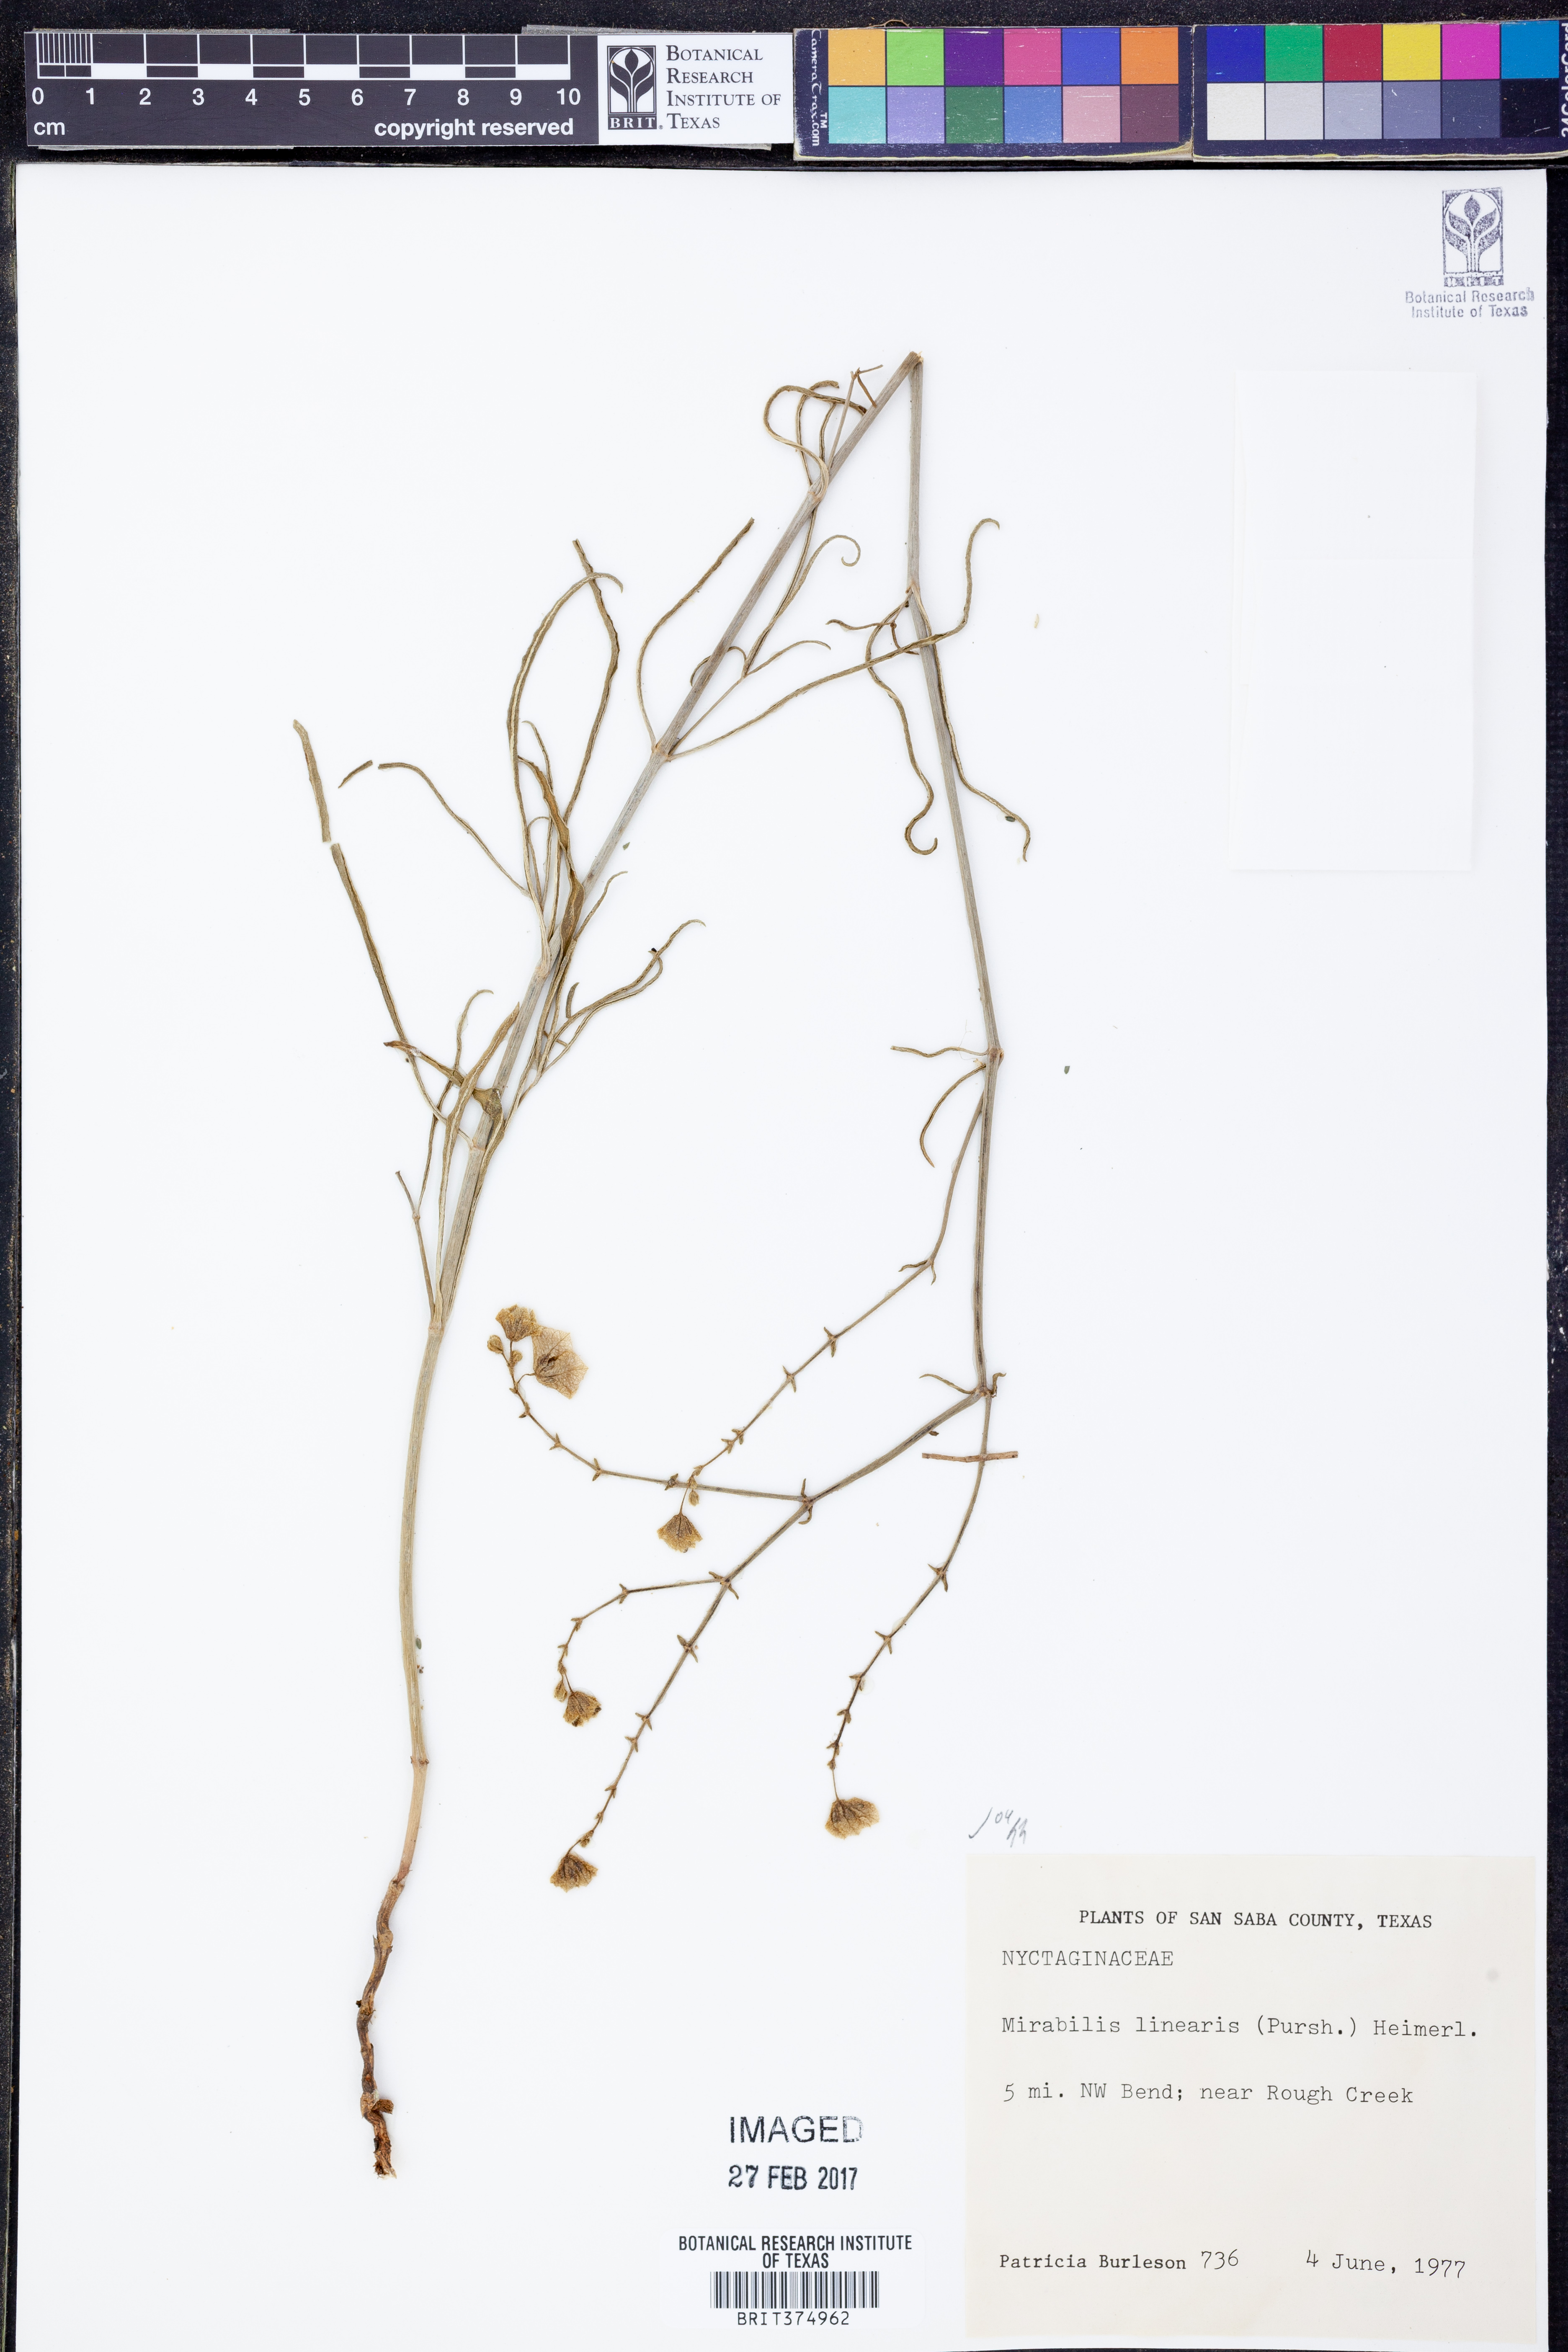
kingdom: Plantae
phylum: Tracheophyta
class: Magnoliopsida
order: Caryophyllales
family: Nyctaginaceae
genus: Mirabilis
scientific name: Mirabilis linearis
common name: Linear-leaved four-o'clock
